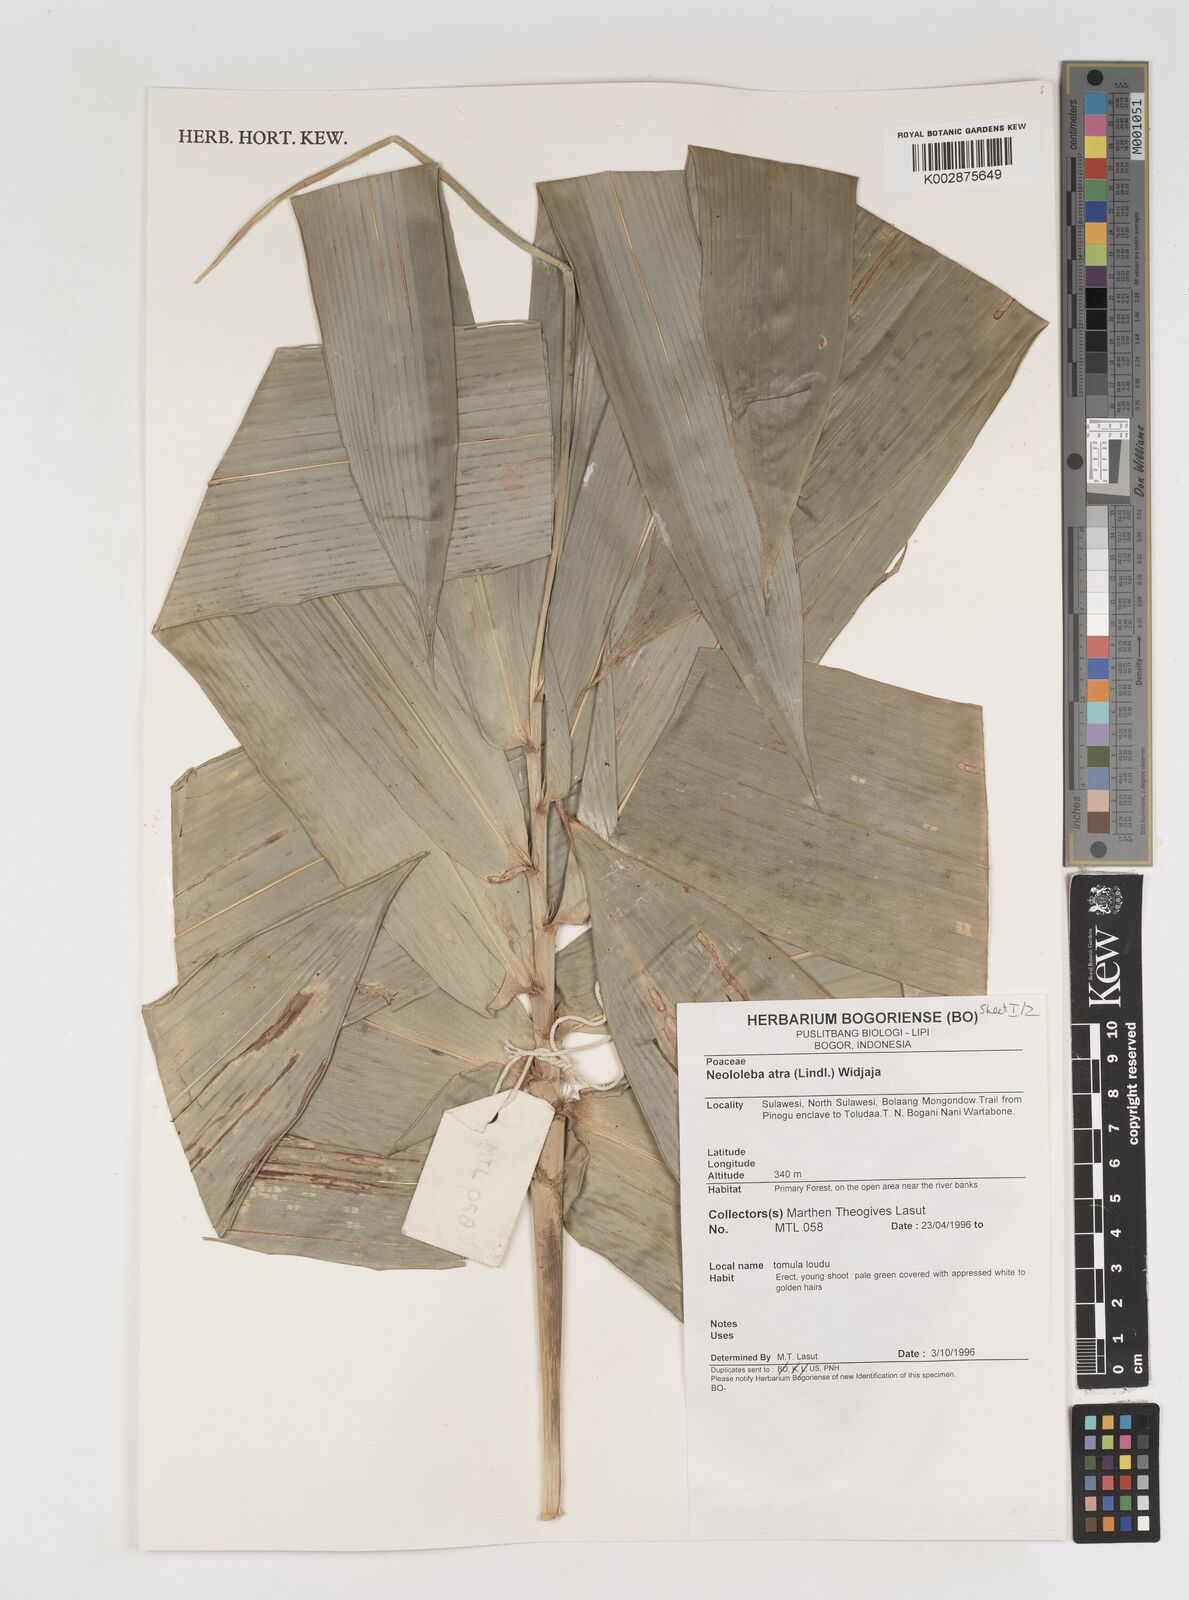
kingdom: Plantae
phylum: Tracheophyta
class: Liliopsida
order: Poales
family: Poaceae
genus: Neololeba
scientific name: Neololeba
